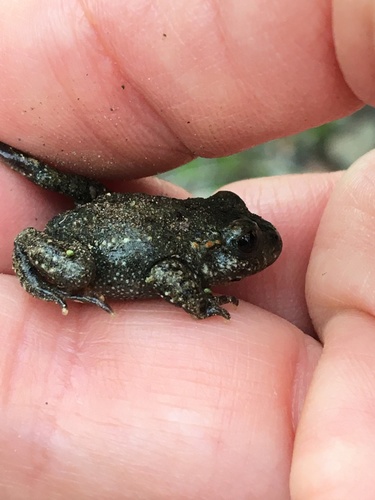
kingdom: Animalia
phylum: Chordata
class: Amphibia
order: Anura
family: Alytidae
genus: Alytes
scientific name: Alytes obstetricans
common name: Midwife toad
